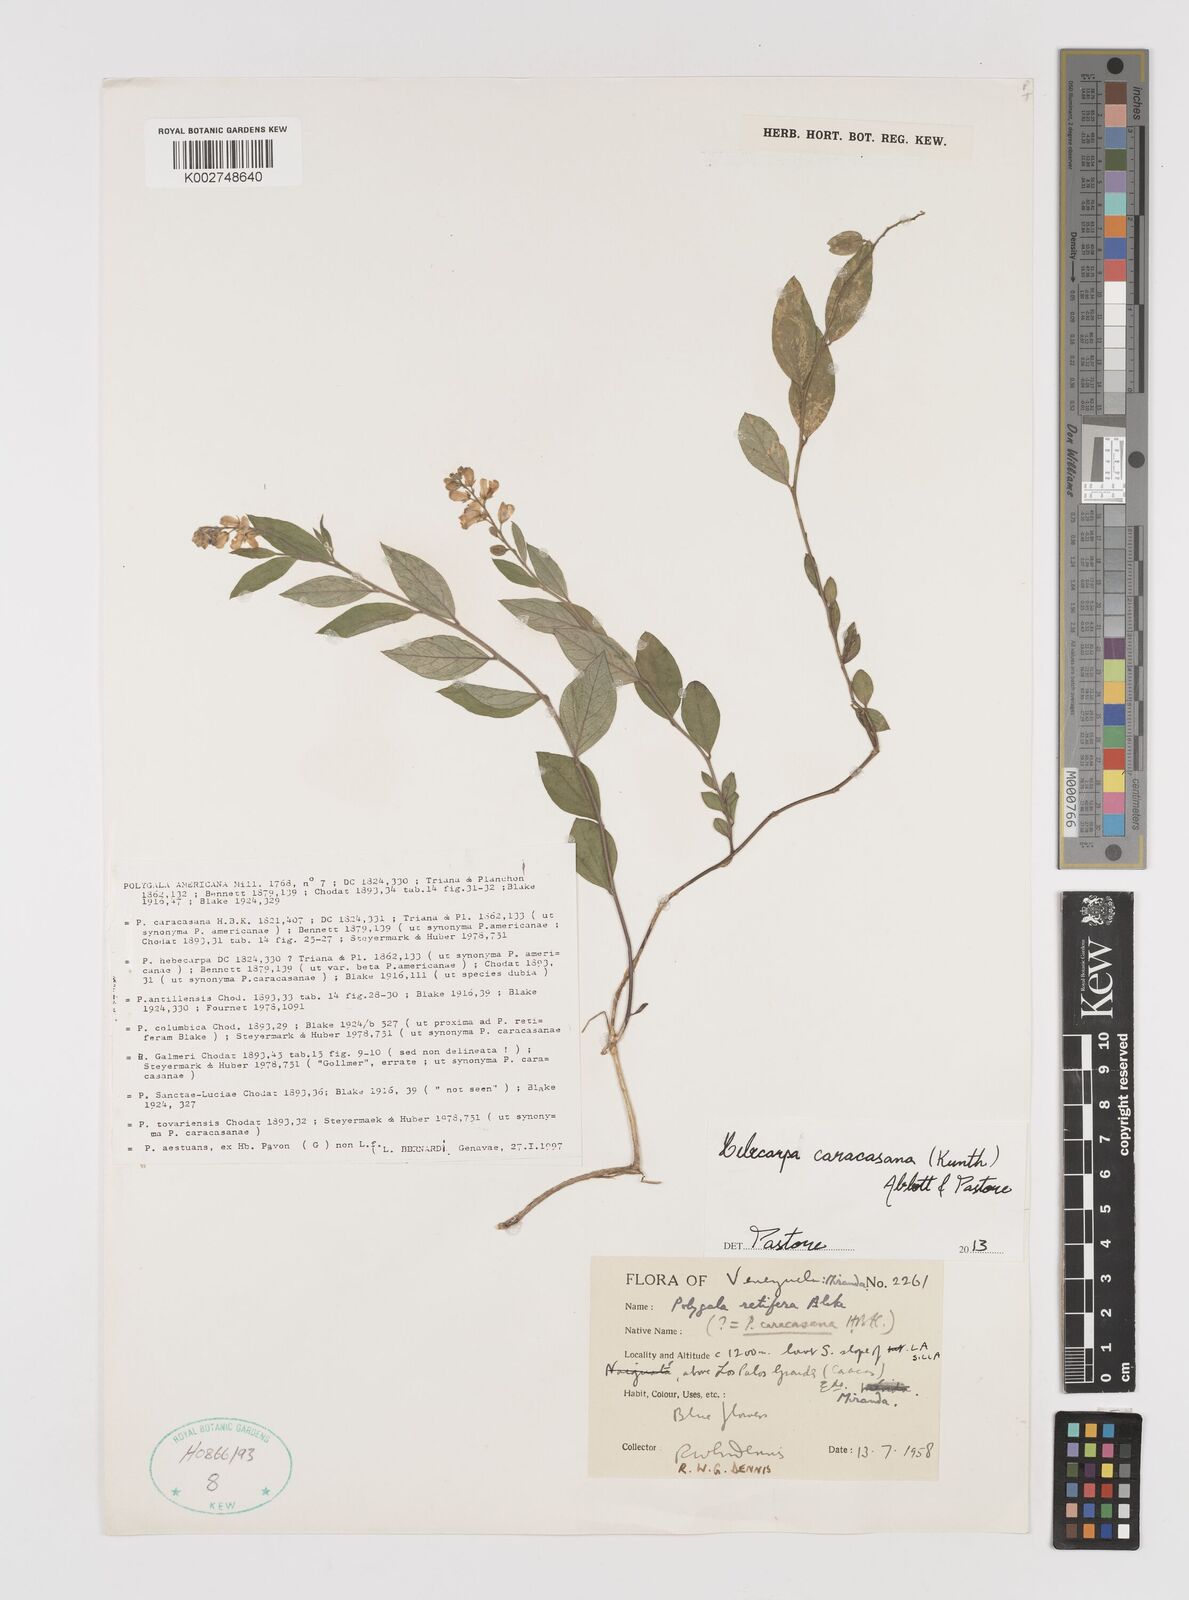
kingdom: Plantae
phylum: Tracheophyta
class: Magnoliopsida
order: Fabales
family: Polygalaceae
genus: Hebecarpa
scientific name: Hebecarpa caracasana
